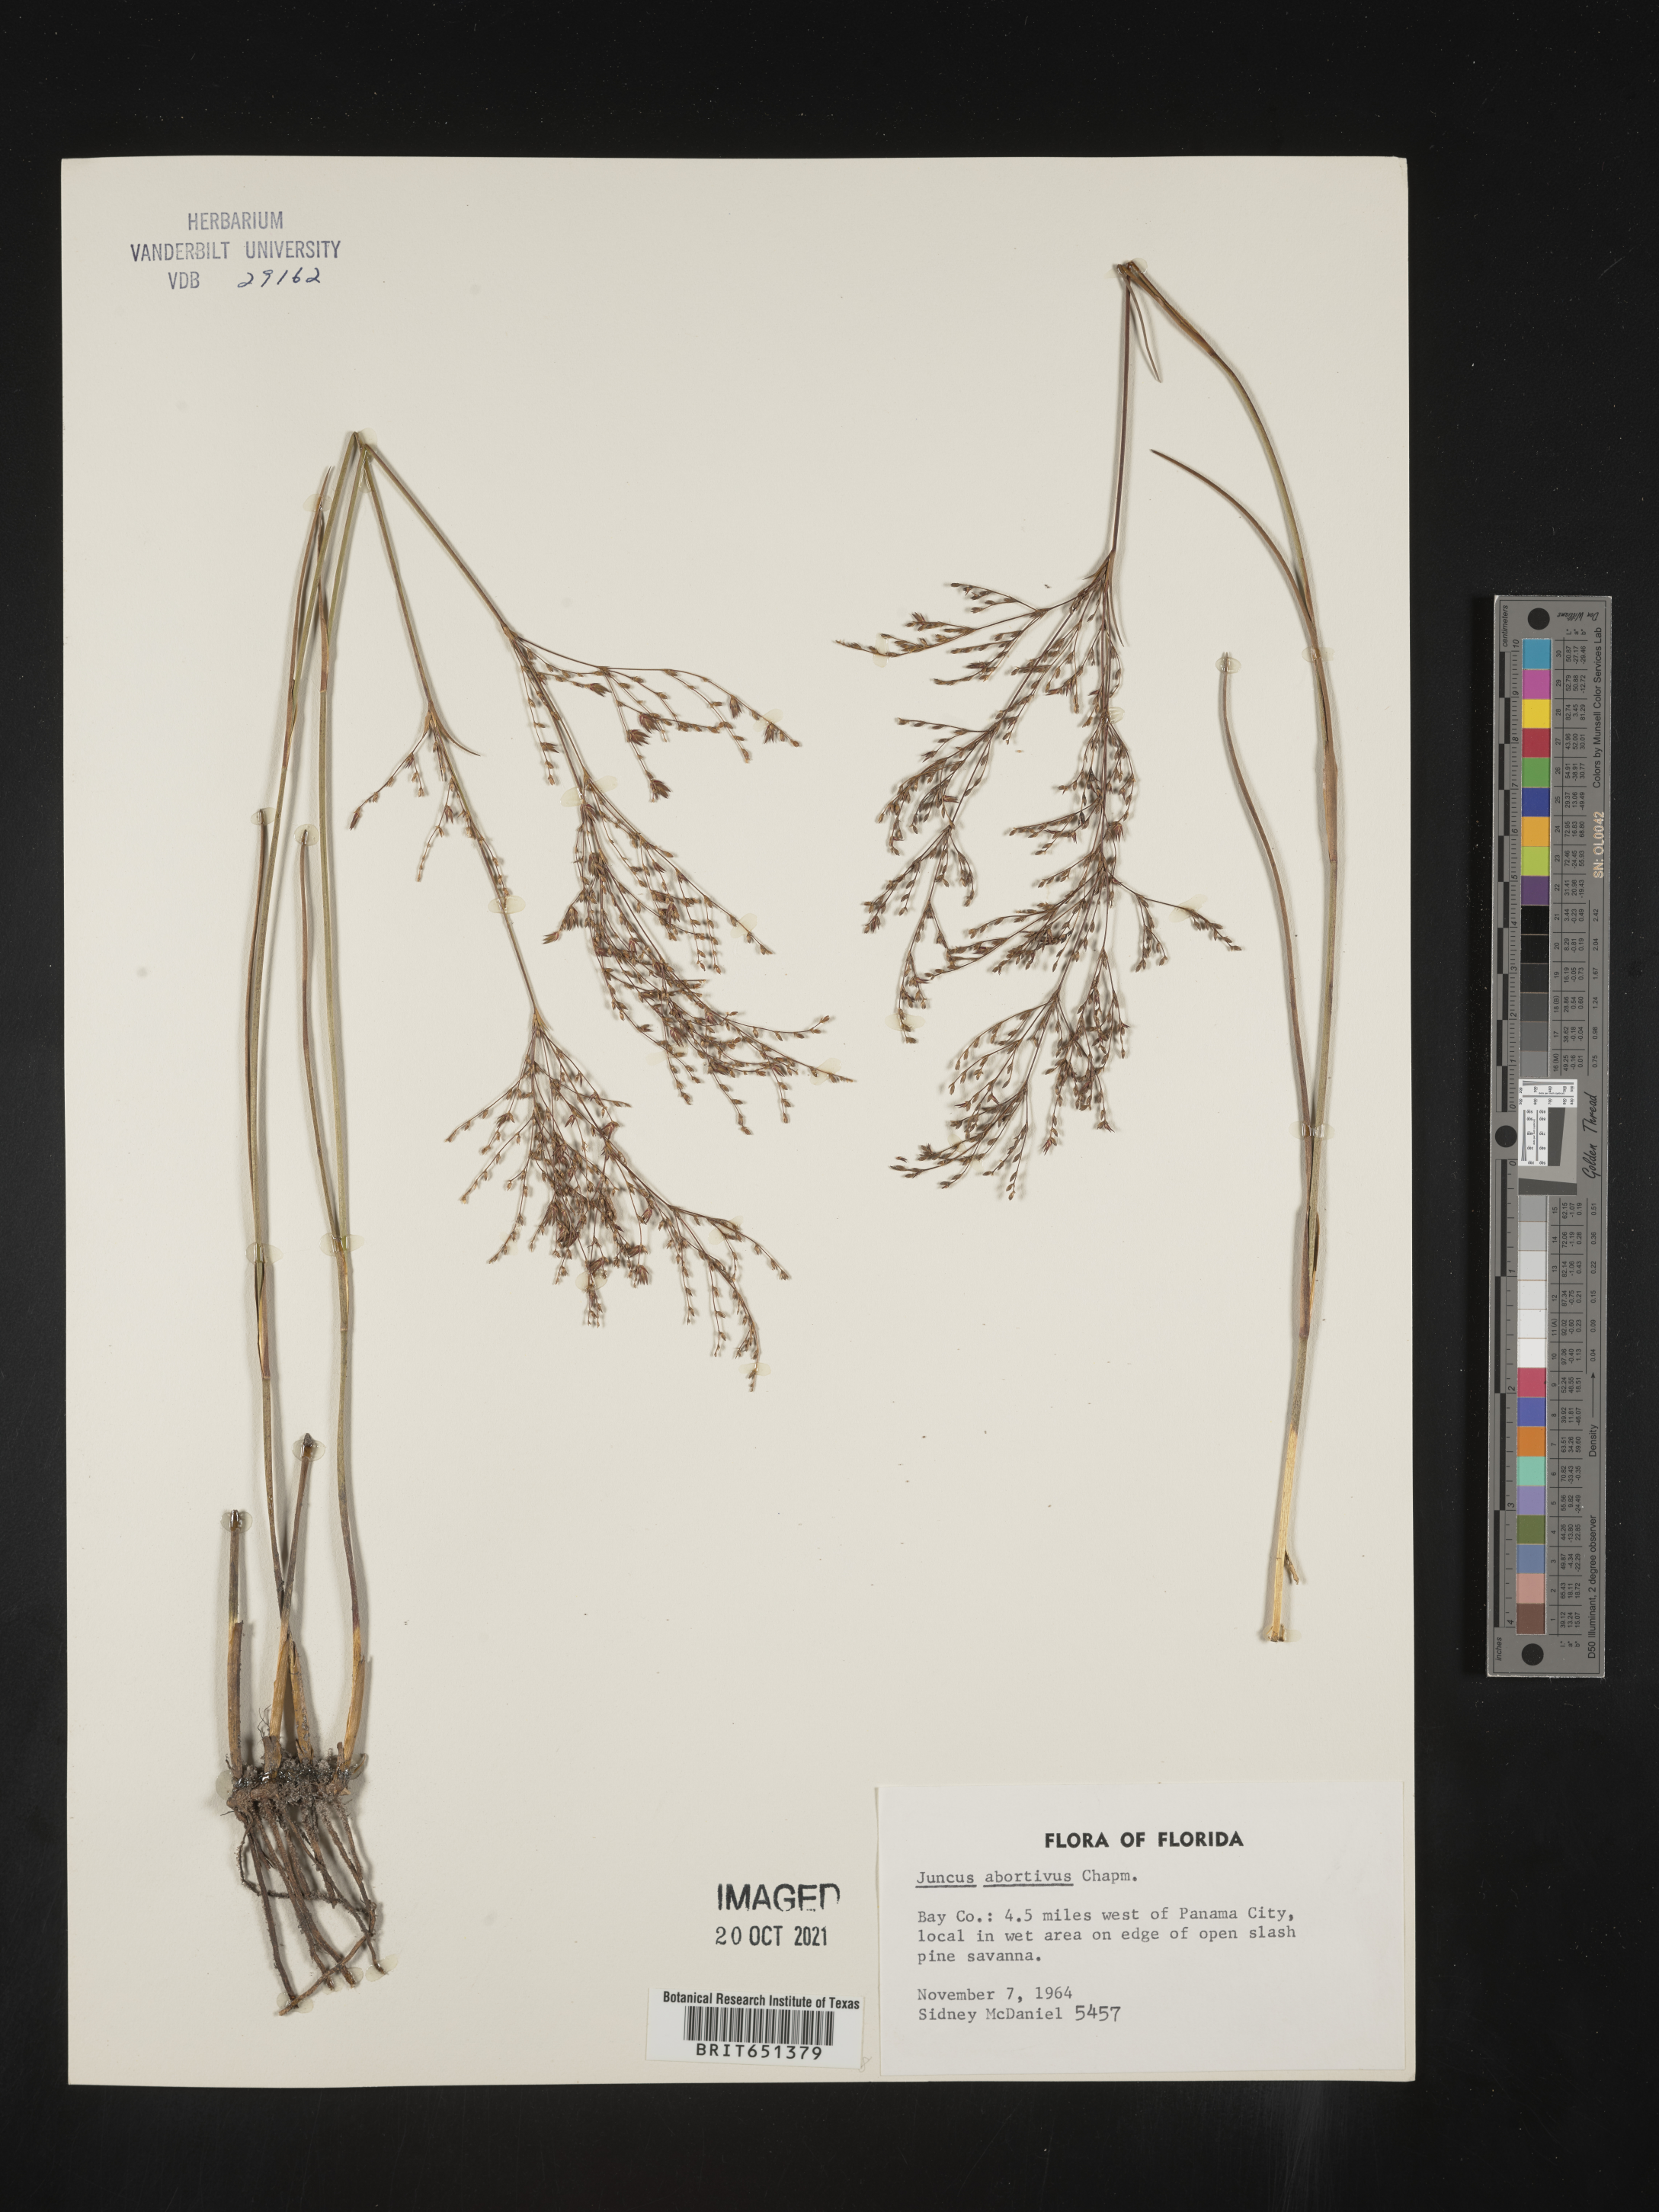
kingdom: Plantae
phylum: Tracheophyta
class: Liliopsida
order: Poales
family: Juncaceae
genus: Juncus
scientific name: Juncus abortivus
